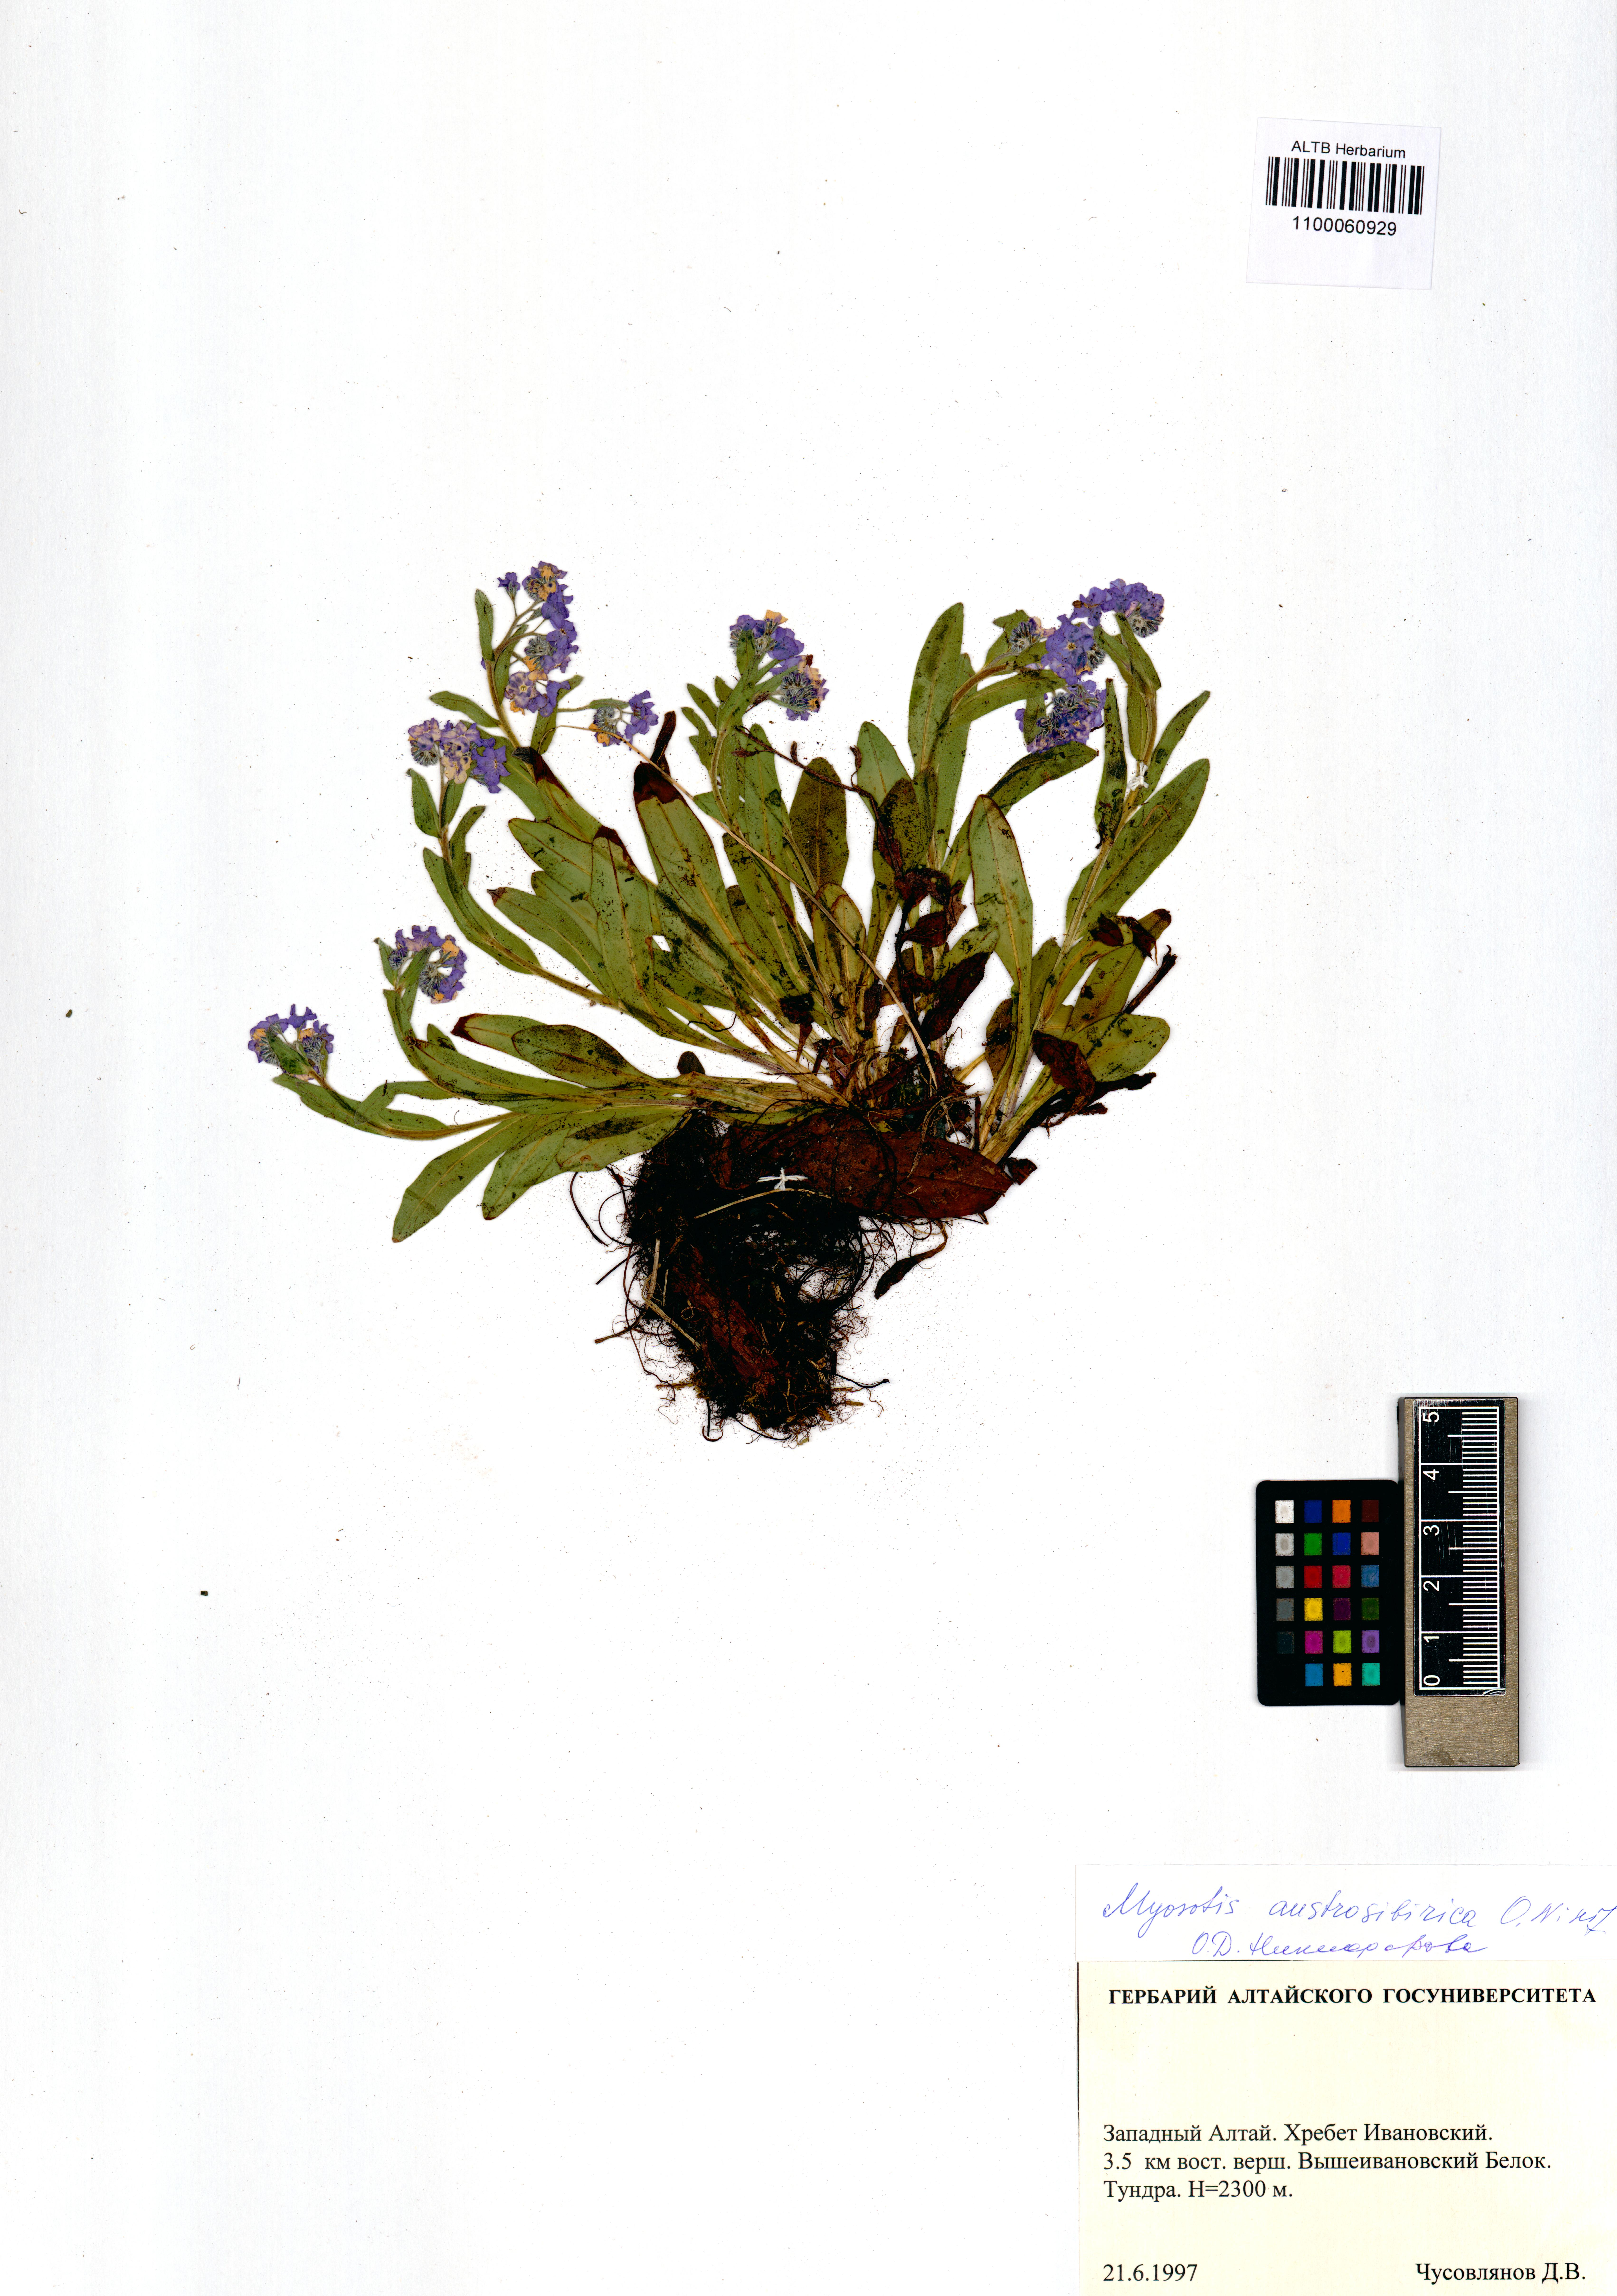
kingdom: Plantae
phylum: Tracheophyta
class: Magnoliopsida
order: Boraginales
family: Boraginaceae
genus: Myosotis
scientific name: Myosotis austrosibirica
